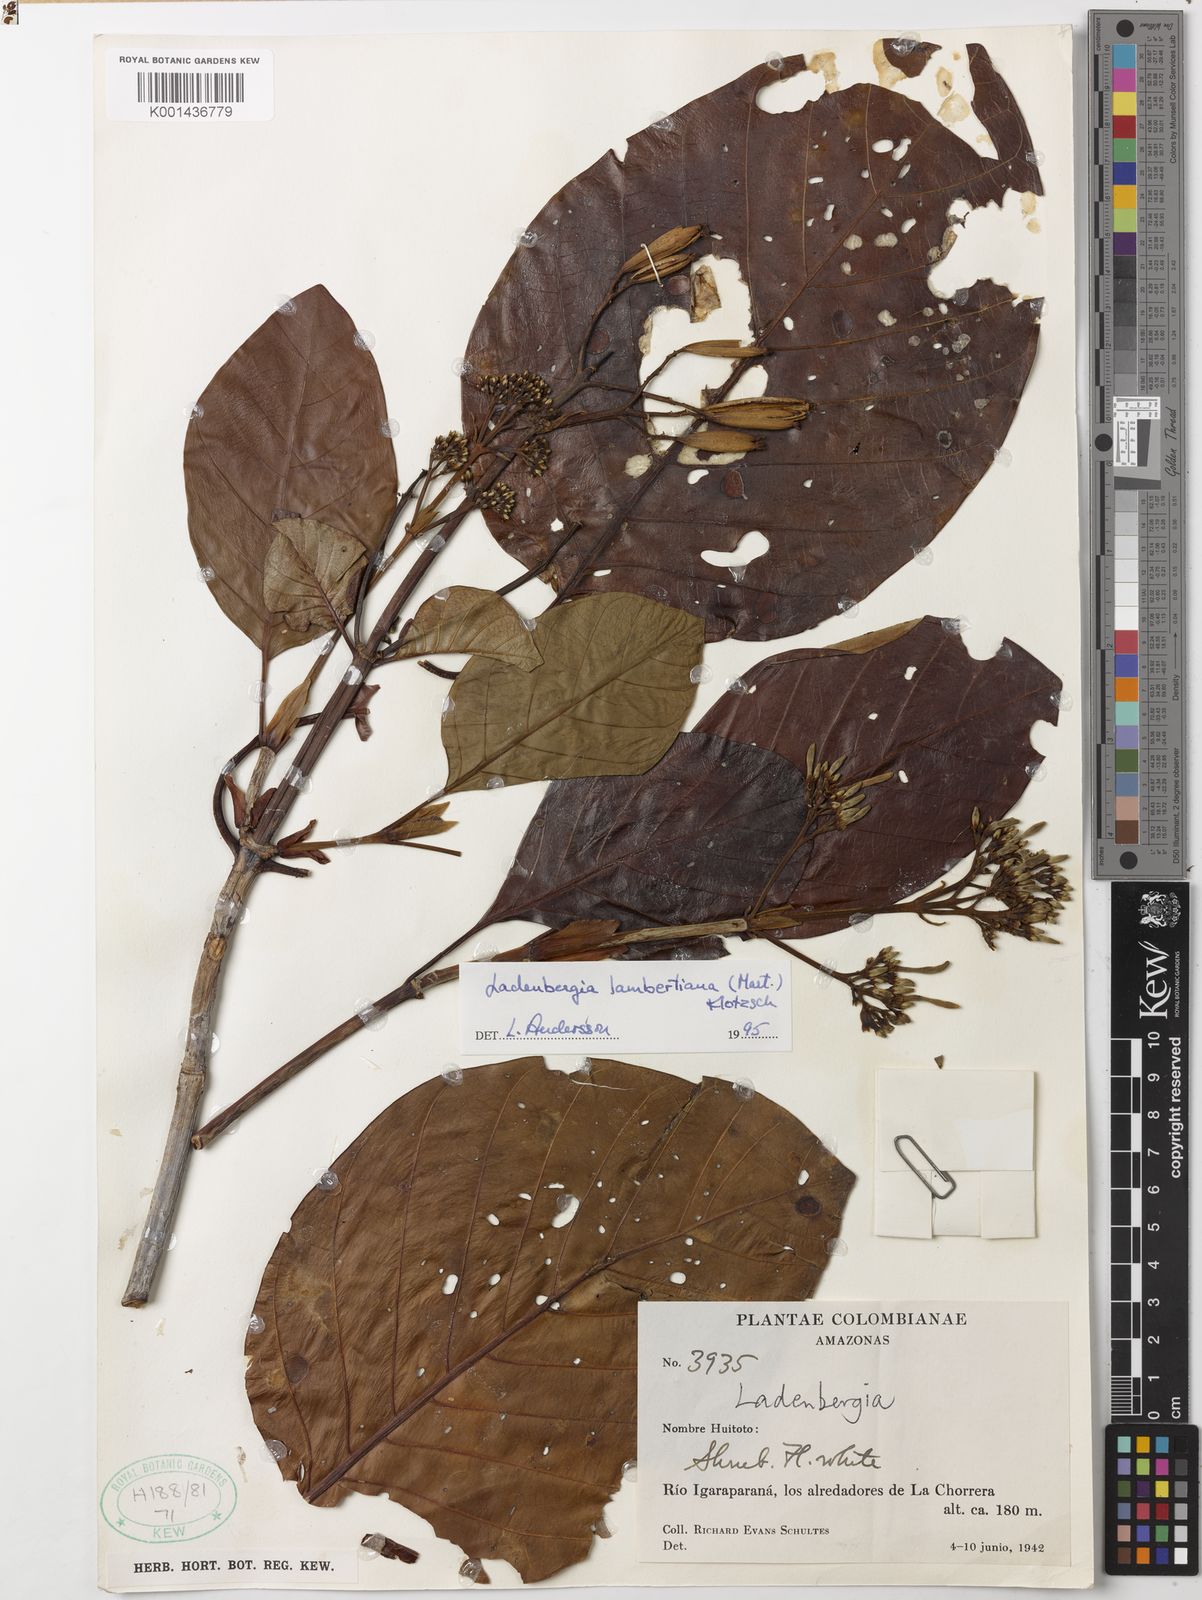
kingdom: Plantae
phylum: Tracheophyta
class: Magnoliopsida
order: Gentianales
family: Rubiaceae
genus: Ladenbergia
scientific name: Ladenbergia lambertiana
